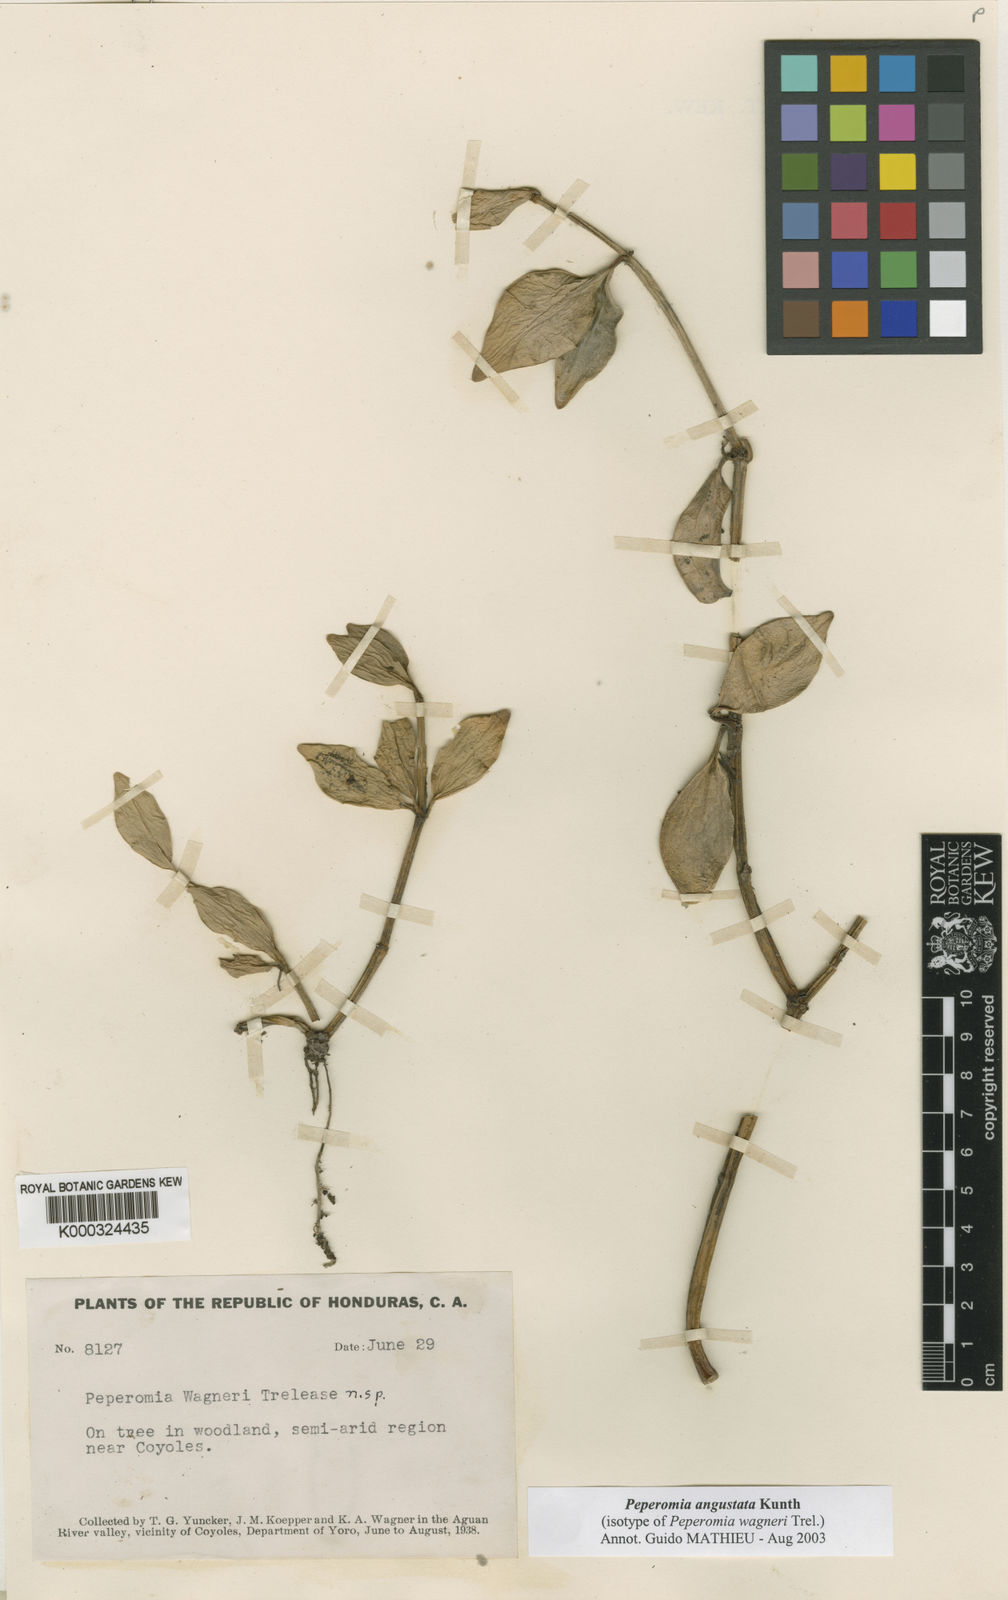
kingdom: Plantae
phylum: Tracheophyta
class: Magnoliopsida
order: Piperales
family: Piperaceae
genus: Peperomia
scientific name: Peperomia angustata
